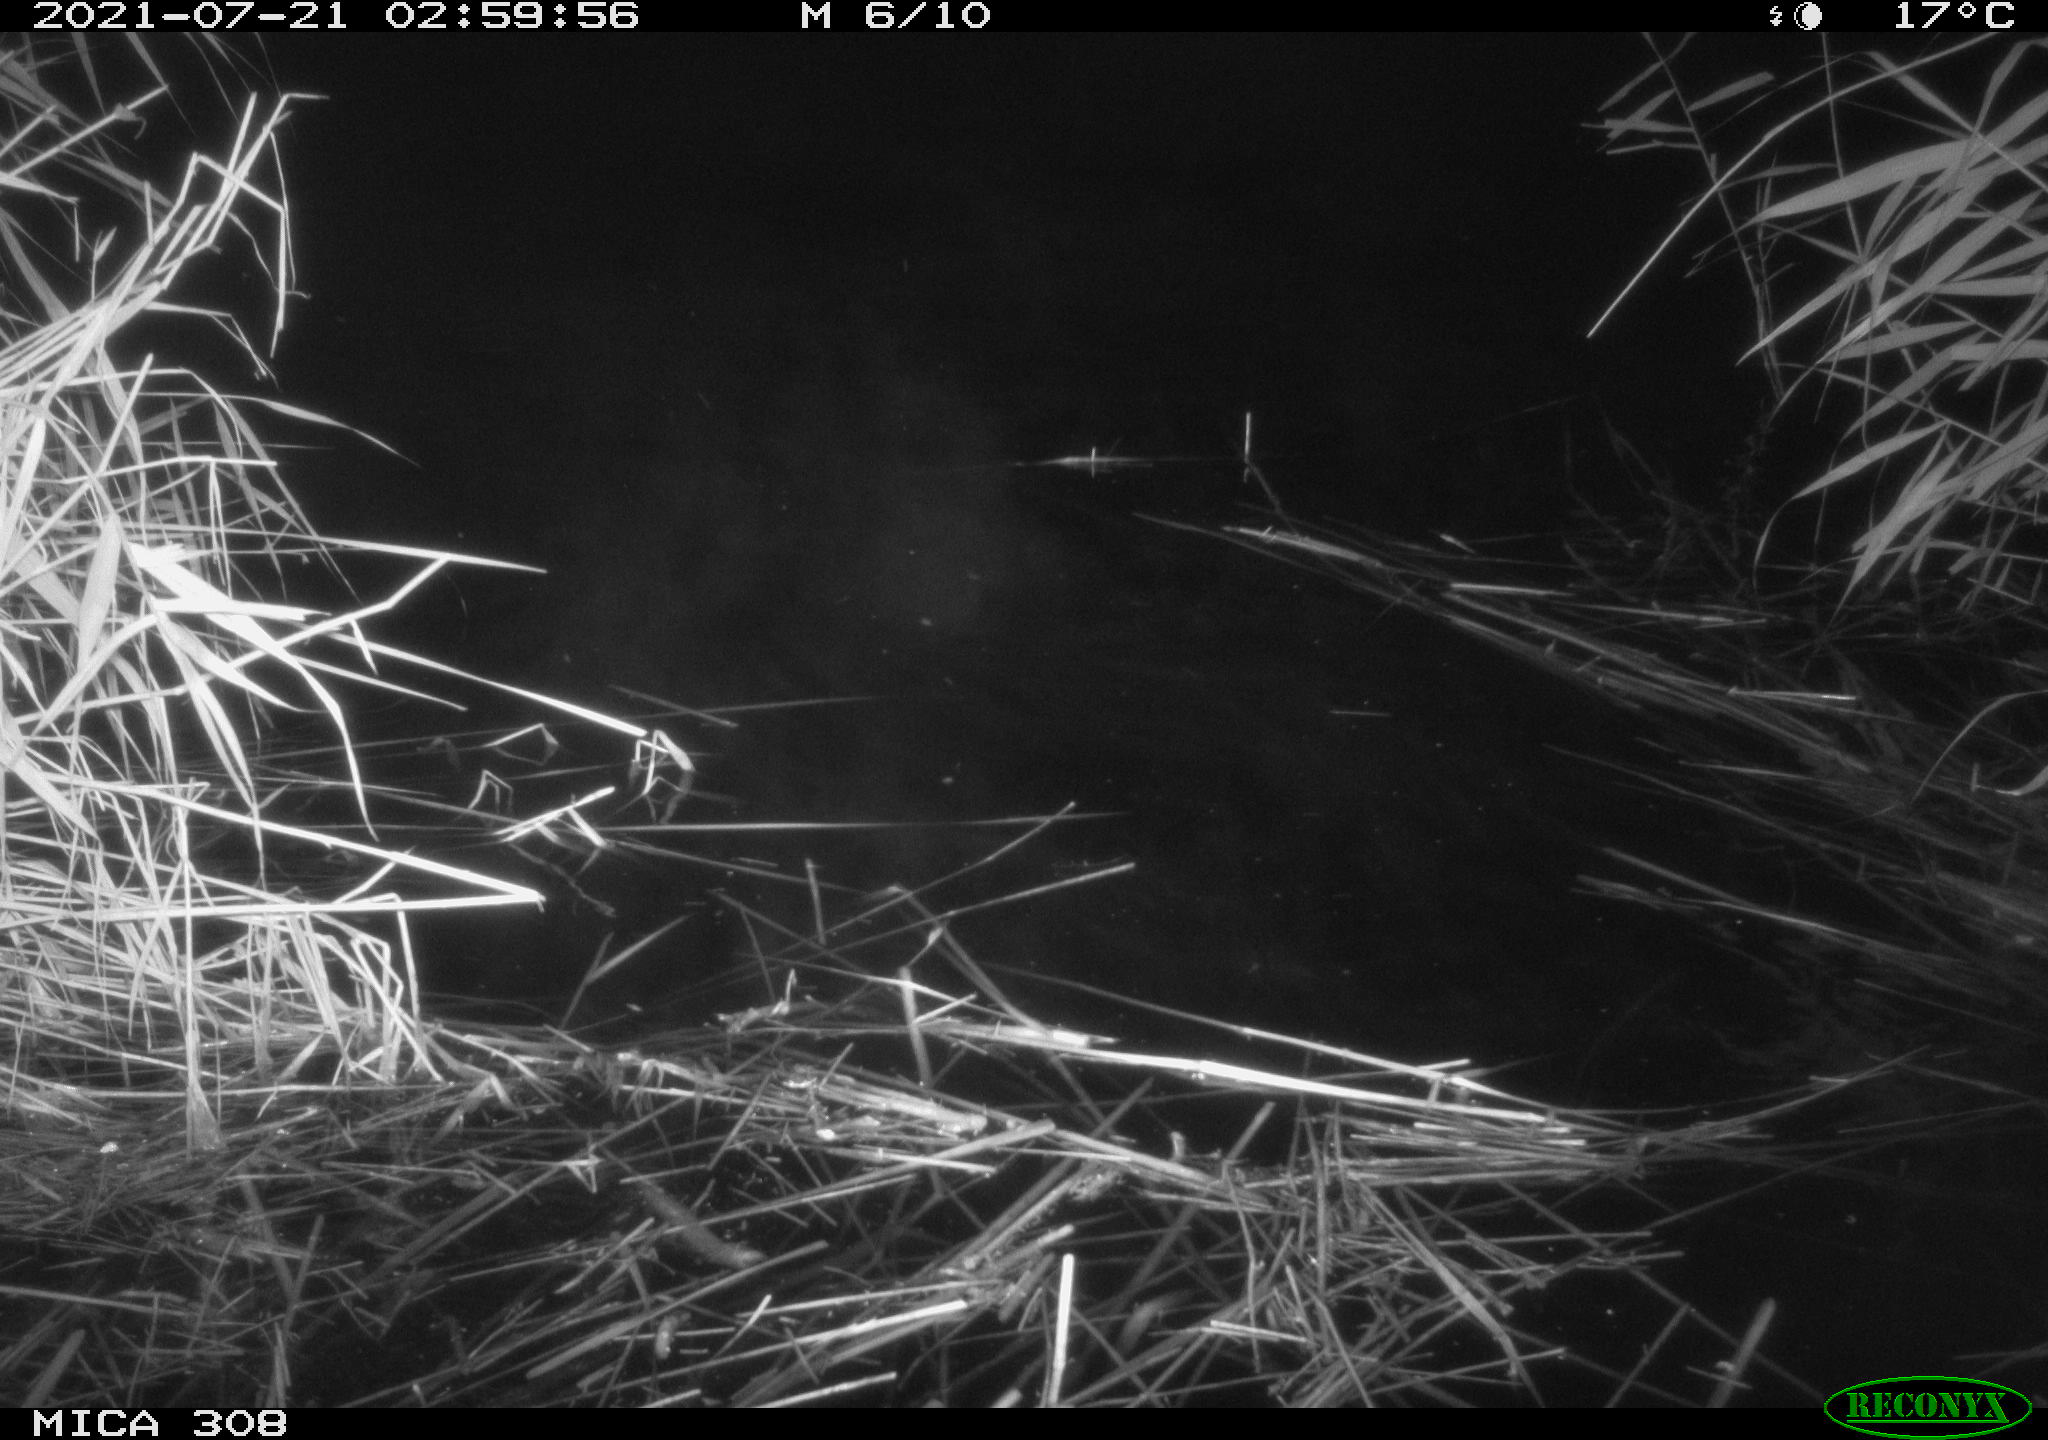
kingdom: Animalia
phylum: Chordata
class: Aves
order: Anseriformes
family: Anatidae
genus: Anas
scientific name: Anas platyrhynchos
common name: Mallard
